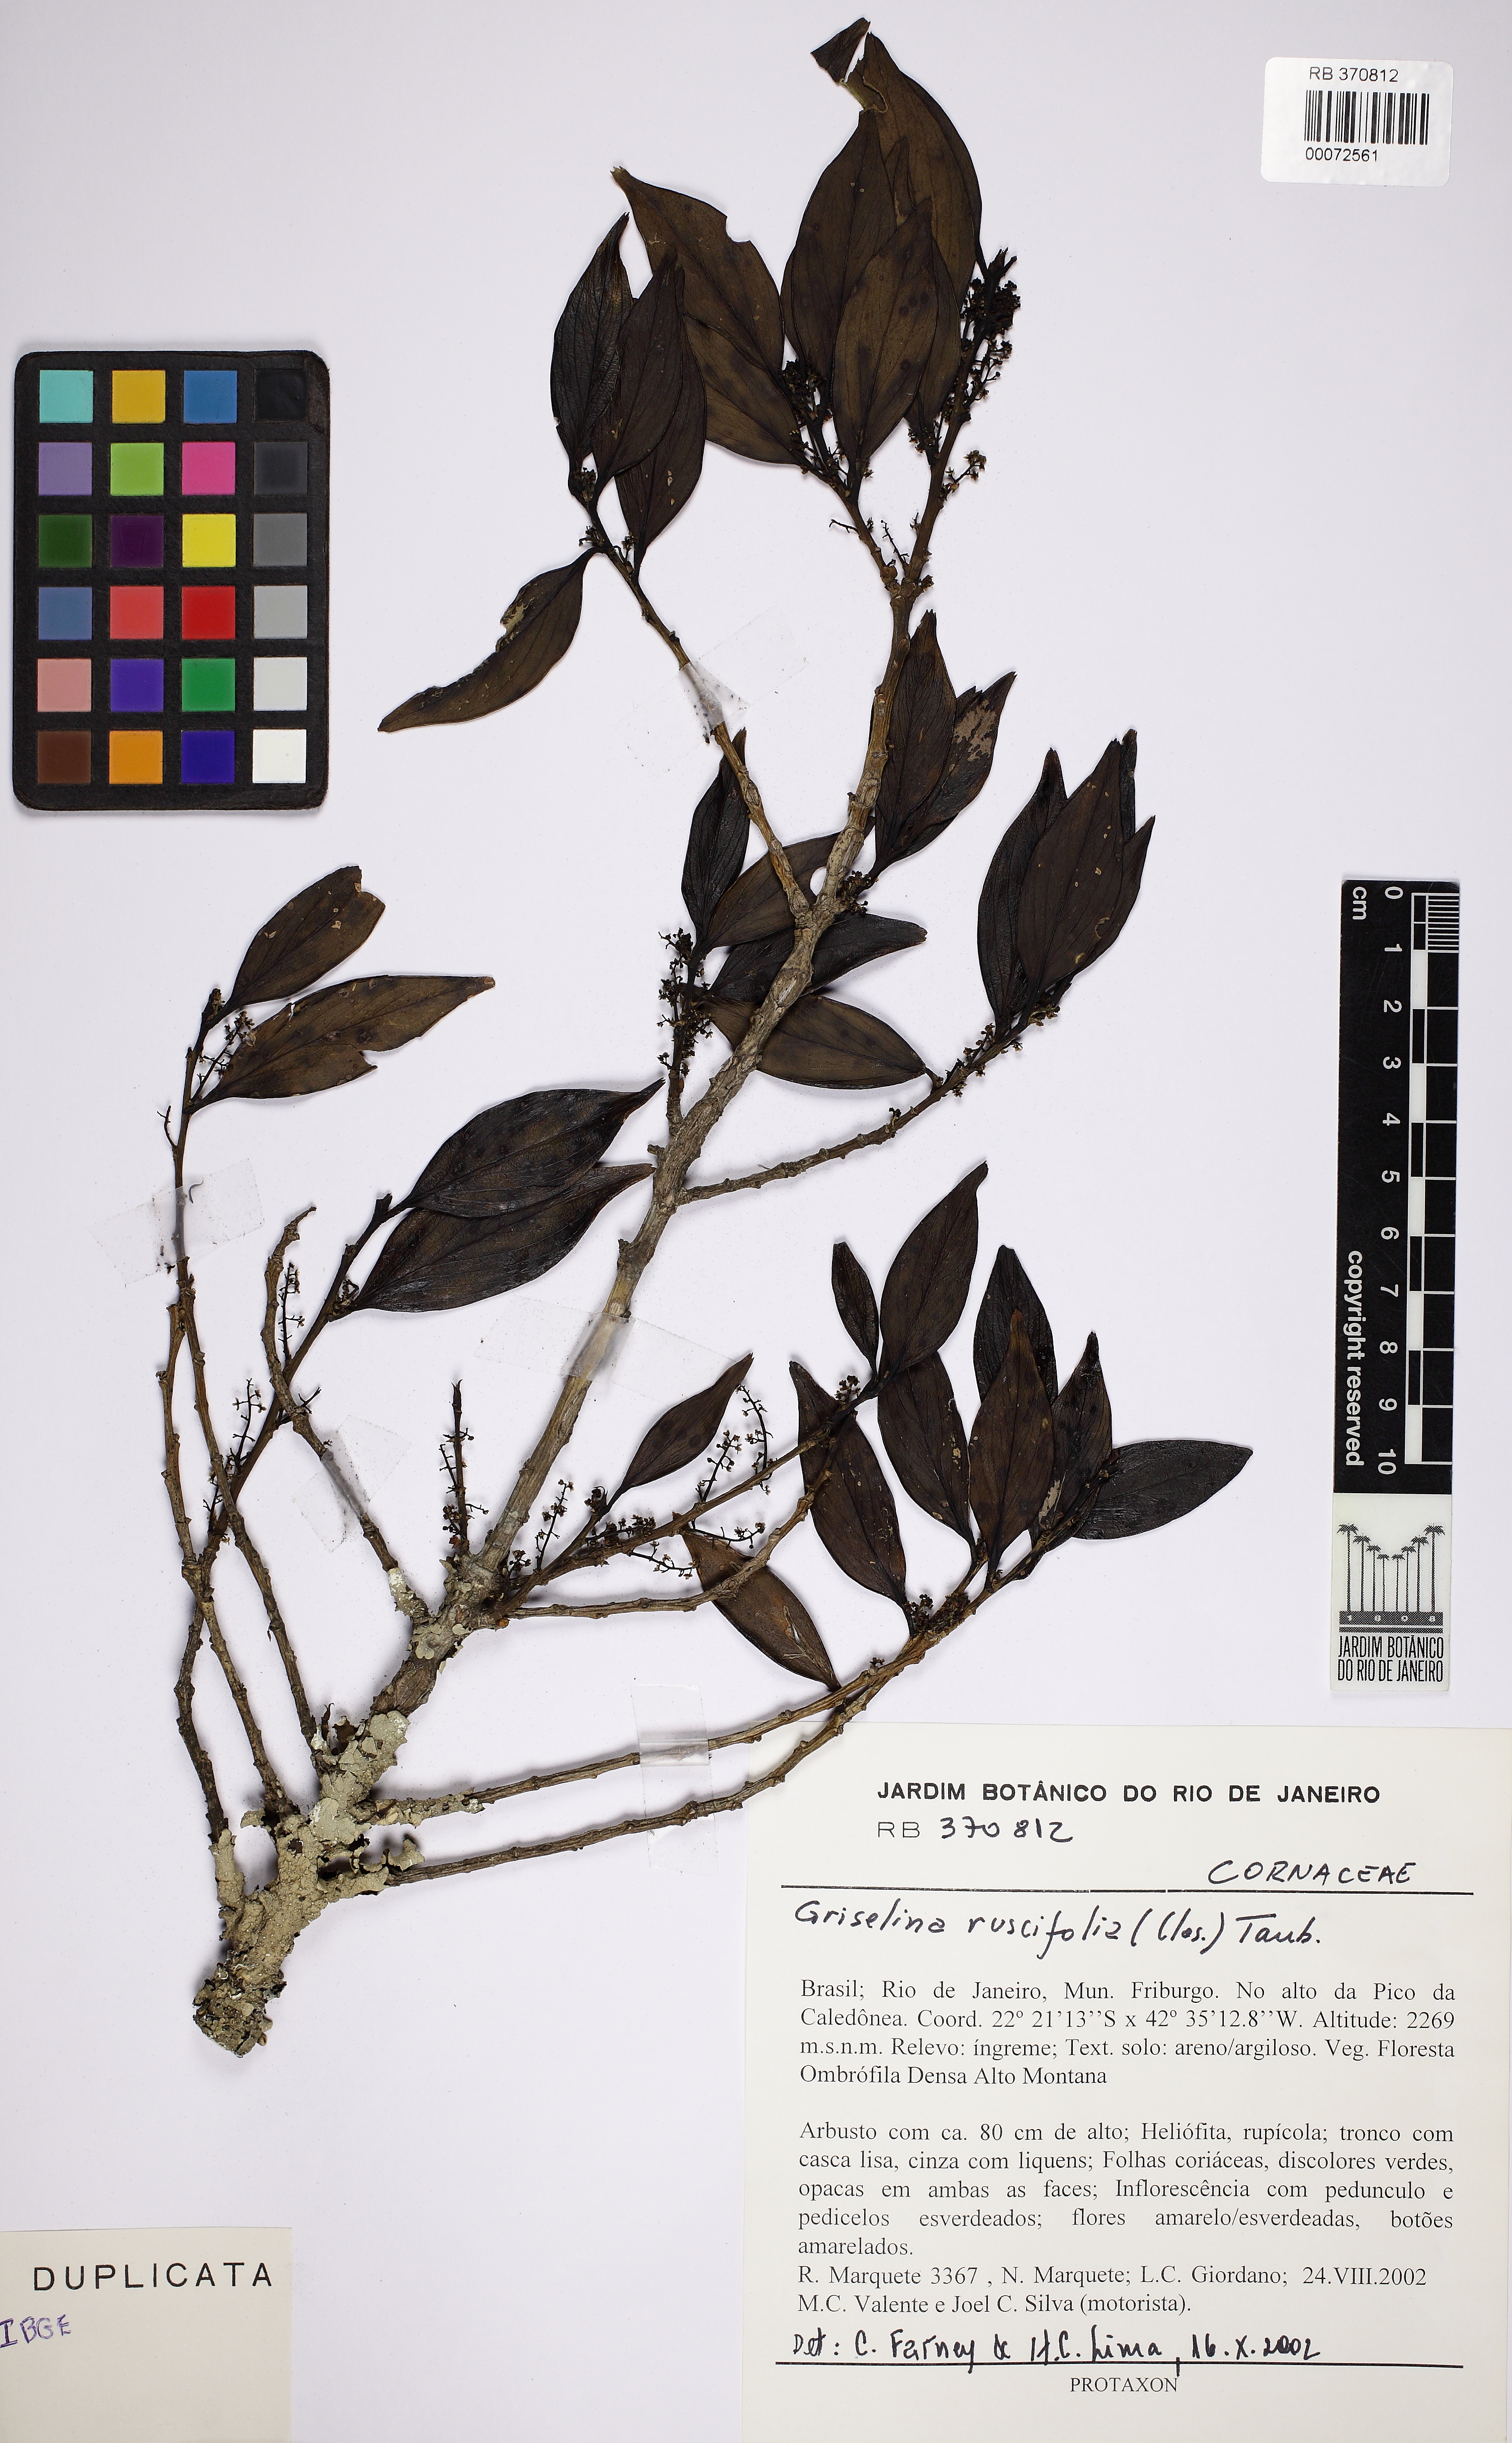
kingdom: Plantae
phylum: Tracheophyta
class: Magnoliopsida
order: Apiales
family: Griseliniaceae
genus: Griselinia
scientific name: Griselinia ruscifolia
